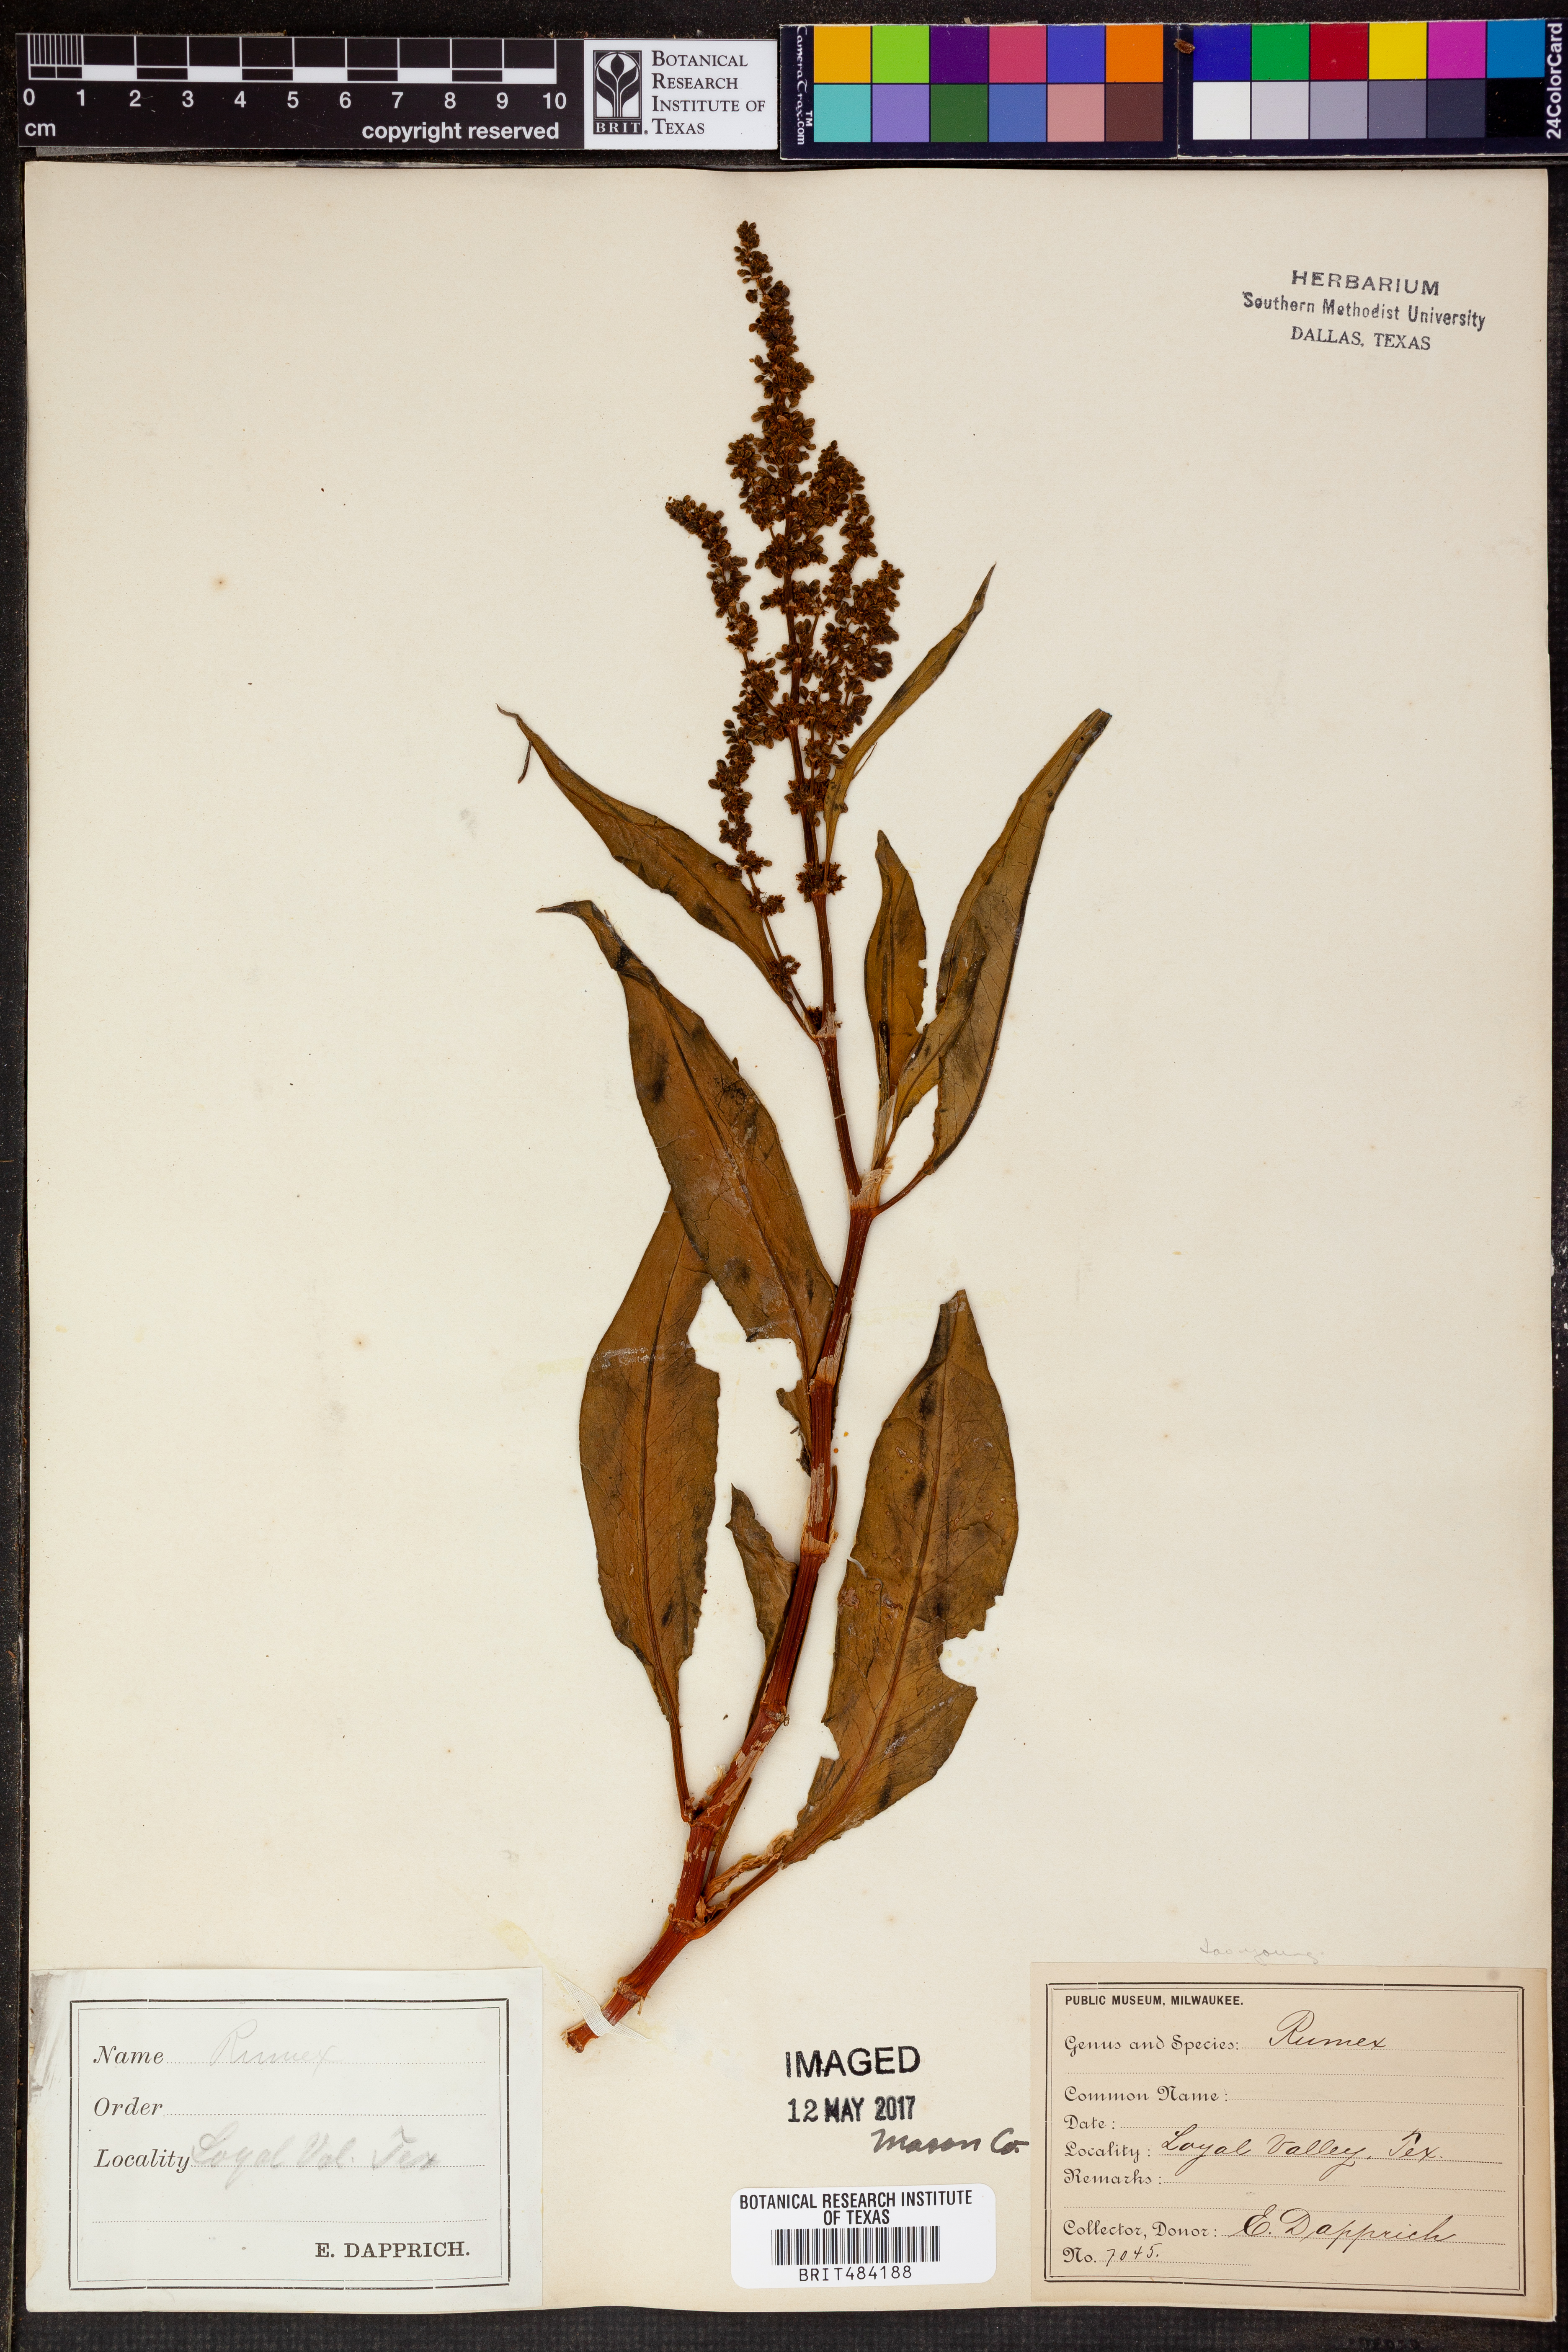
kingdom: Plantae
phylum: Tracheophyta
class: Magnoliopsida
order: Caryophyllales
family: Polygonaceae
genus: Rumex
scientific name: Rumex
